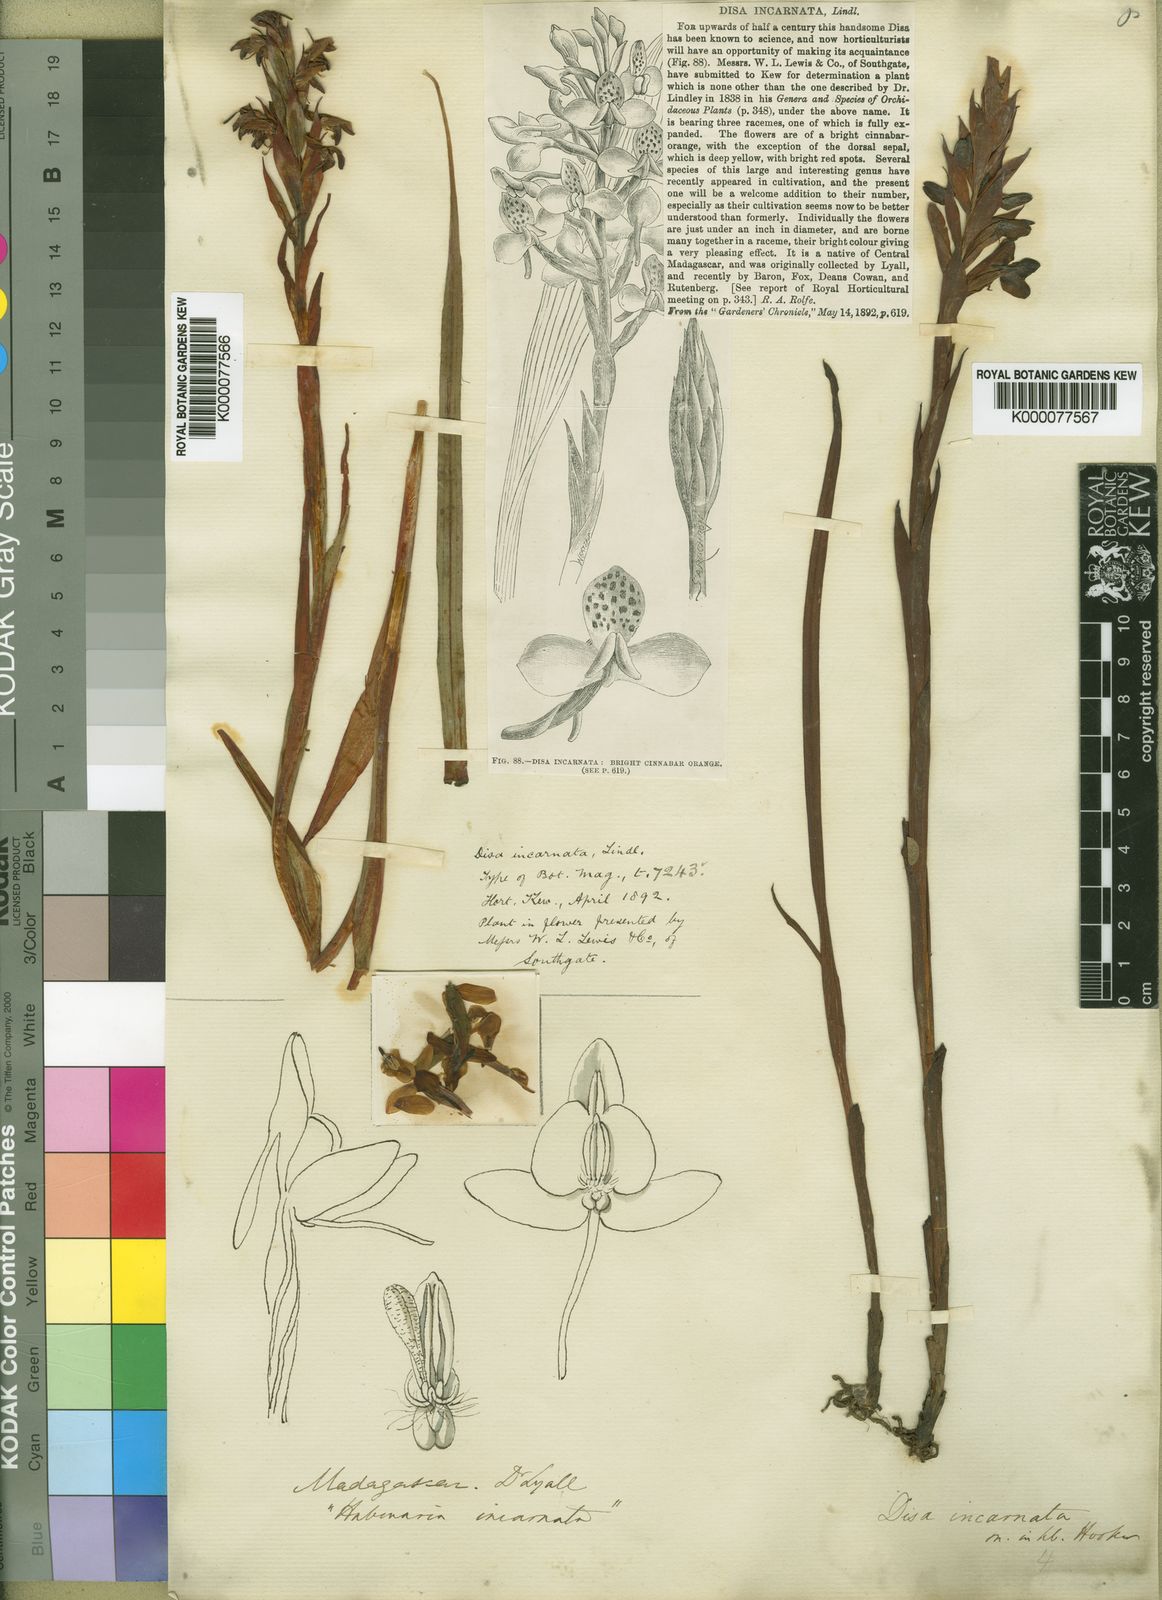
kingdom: Plantae
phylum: Tracheophyta
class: Liliopsida
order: Asparagales
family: Orchidaceae
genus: Disa
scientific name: Disa incarnata
